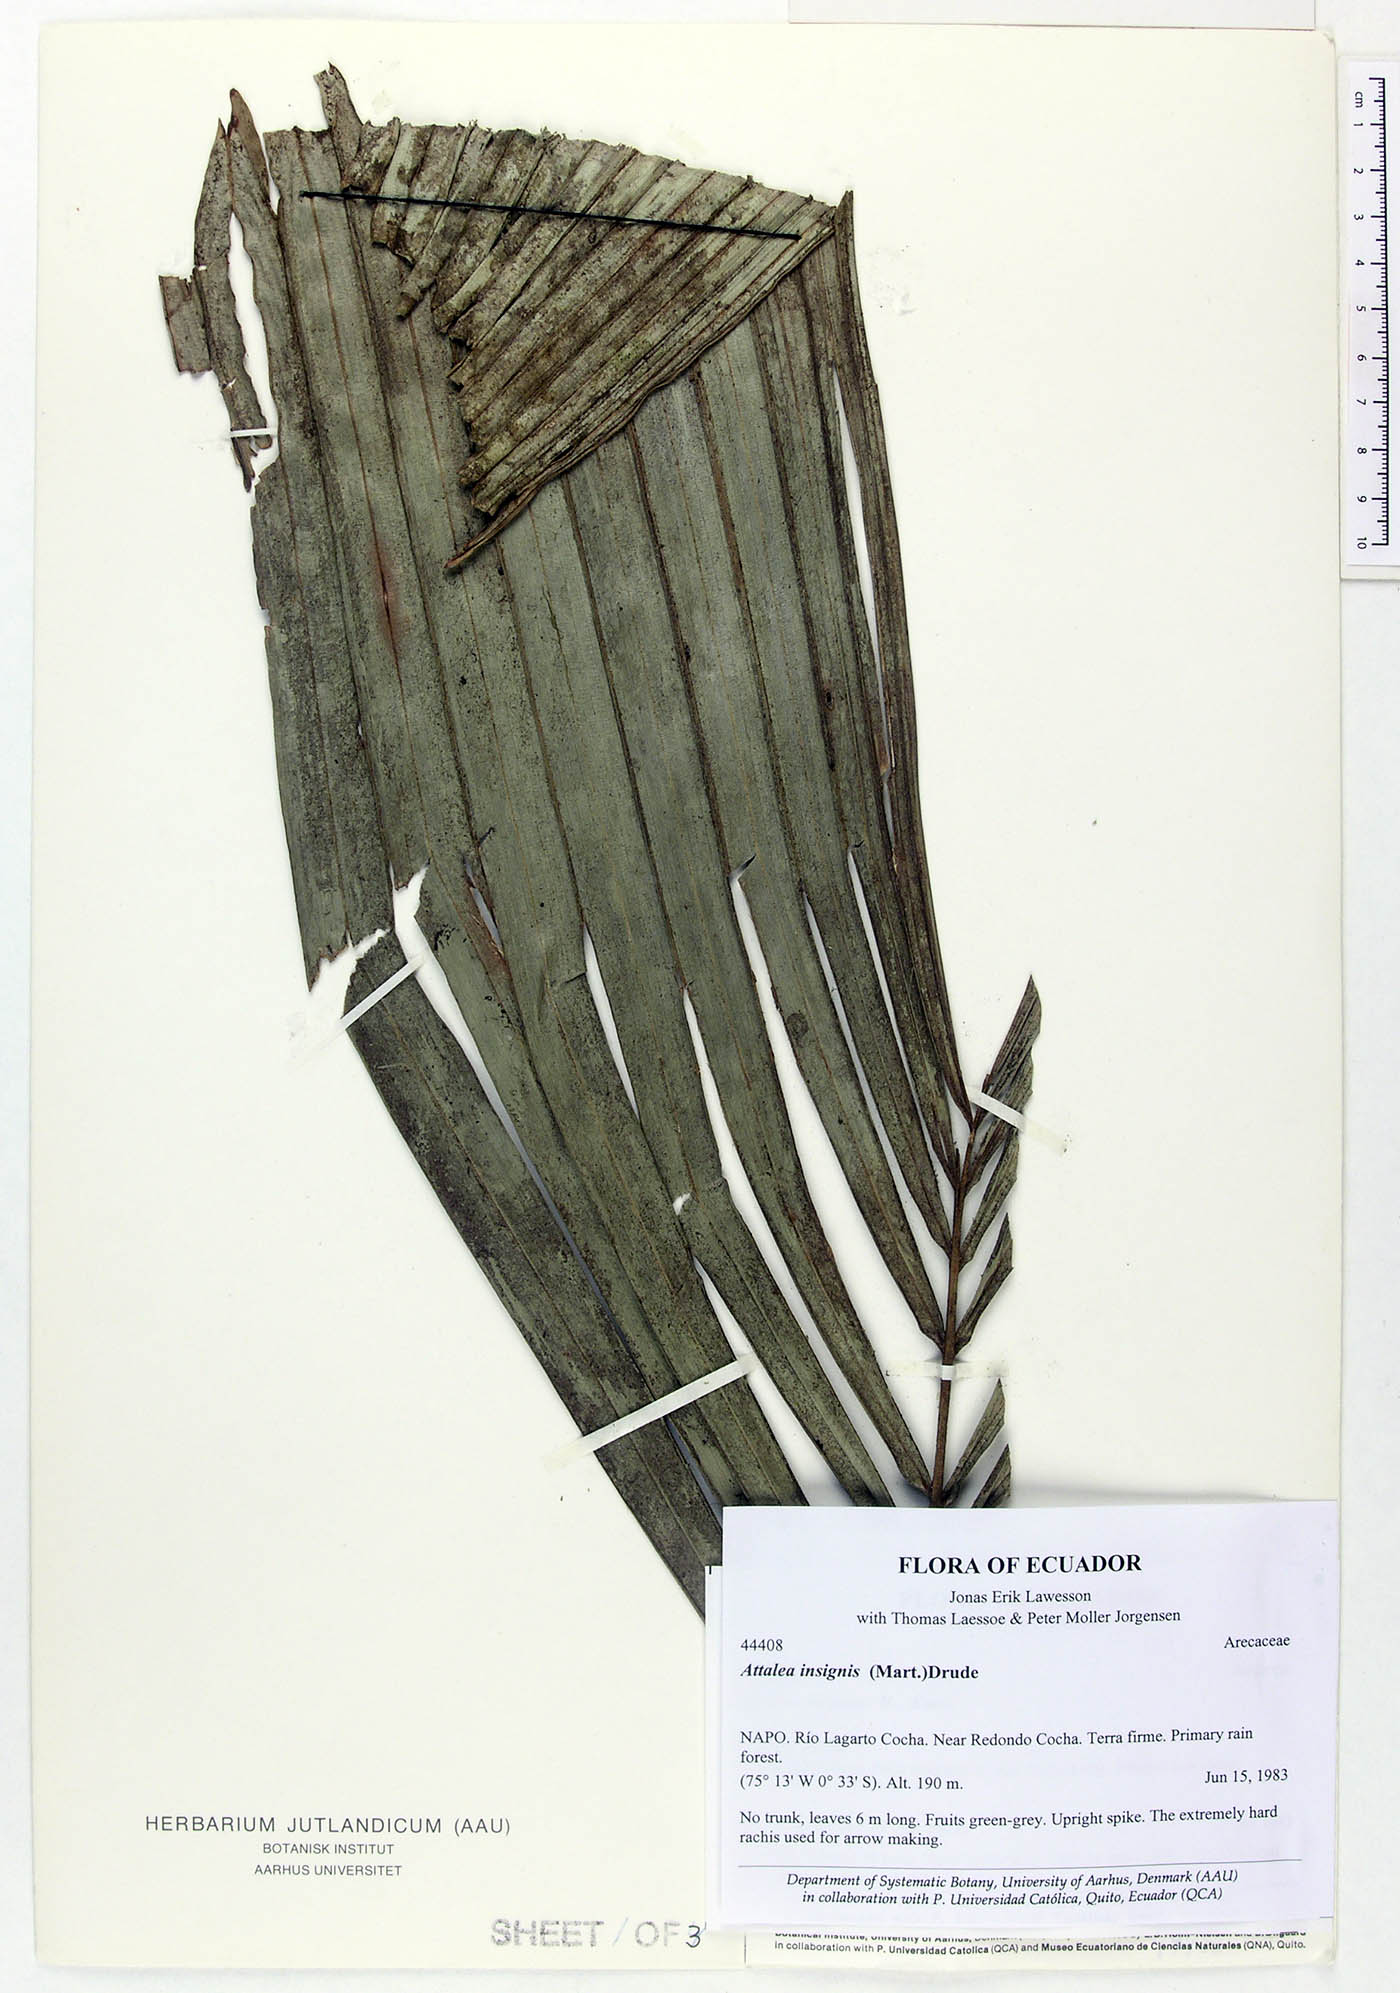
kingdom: Plantae
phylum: Tracheophyta
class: Liliopsida
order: Arecales
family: Arecaceae
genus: Attalea
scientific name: Attalea insignis
